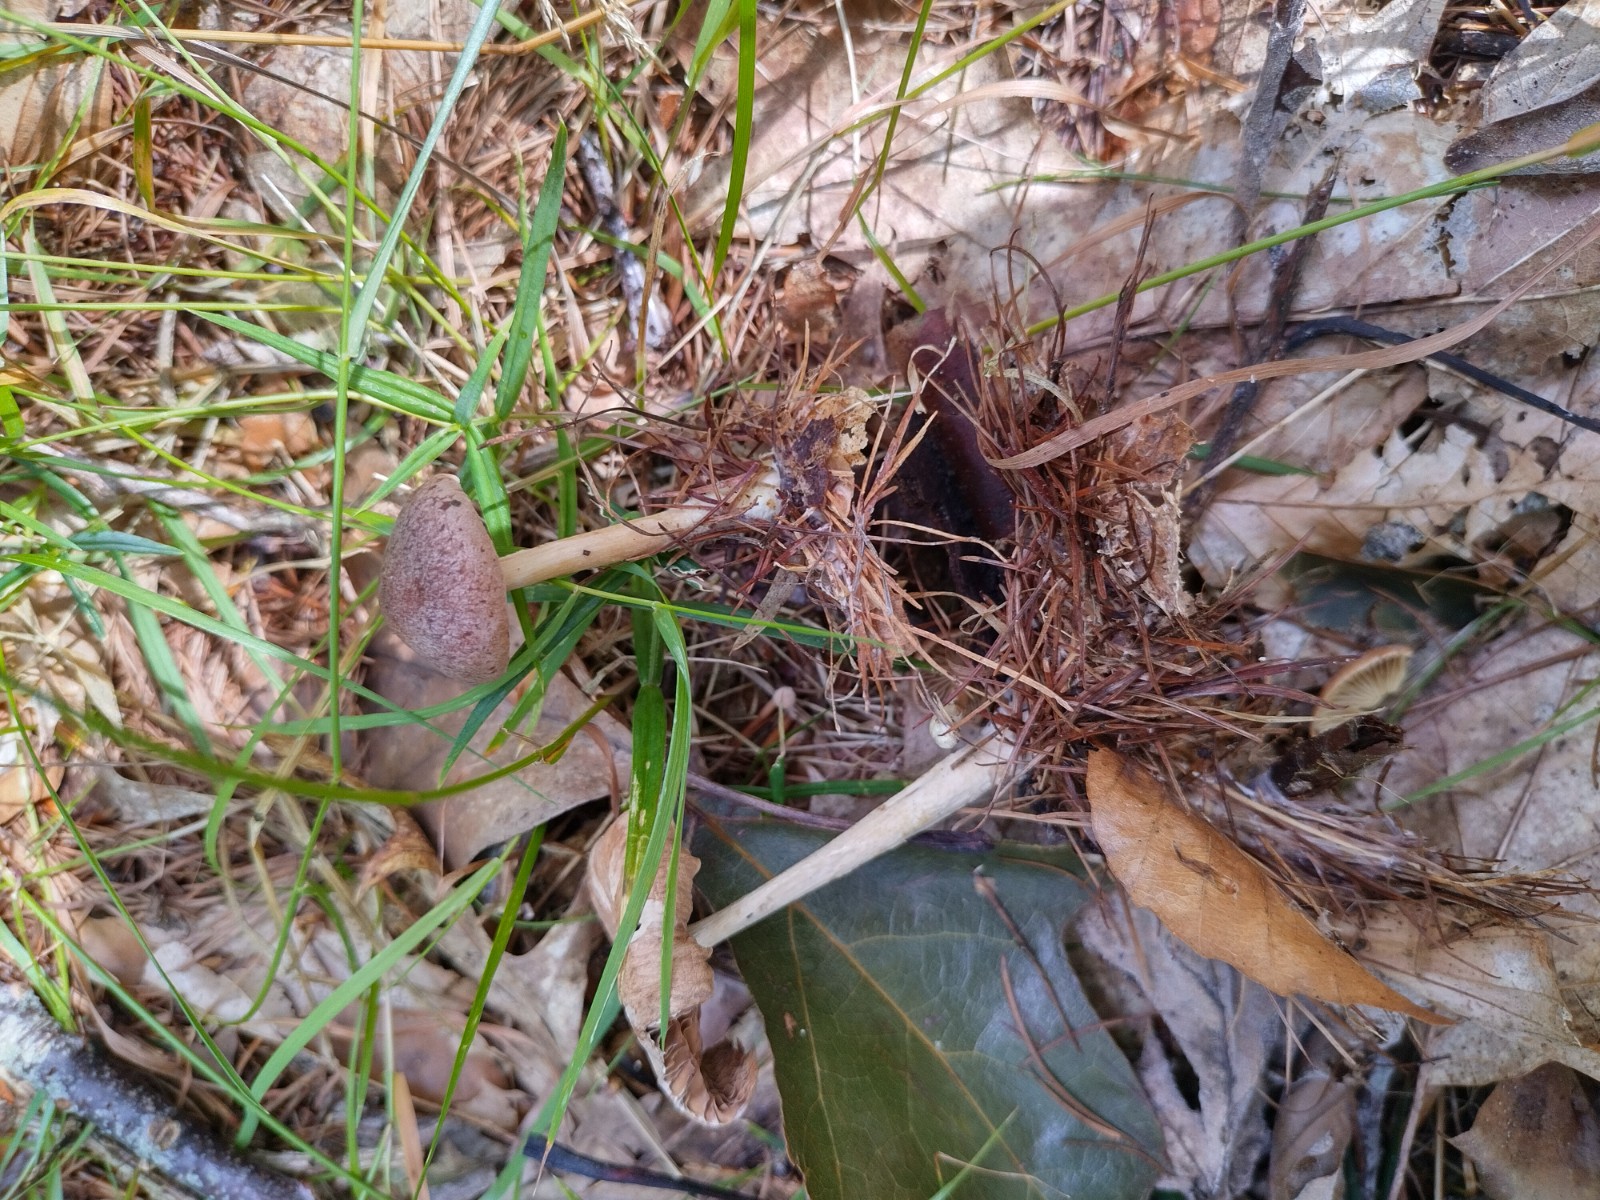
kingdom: Fungi
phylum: Basidiomycota
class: Agaricomycetes
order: Agaricales
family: Omphalotaceae
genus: Collybiopsis
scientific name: Collybiopsis peronata
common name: bestøvlet fladhat
